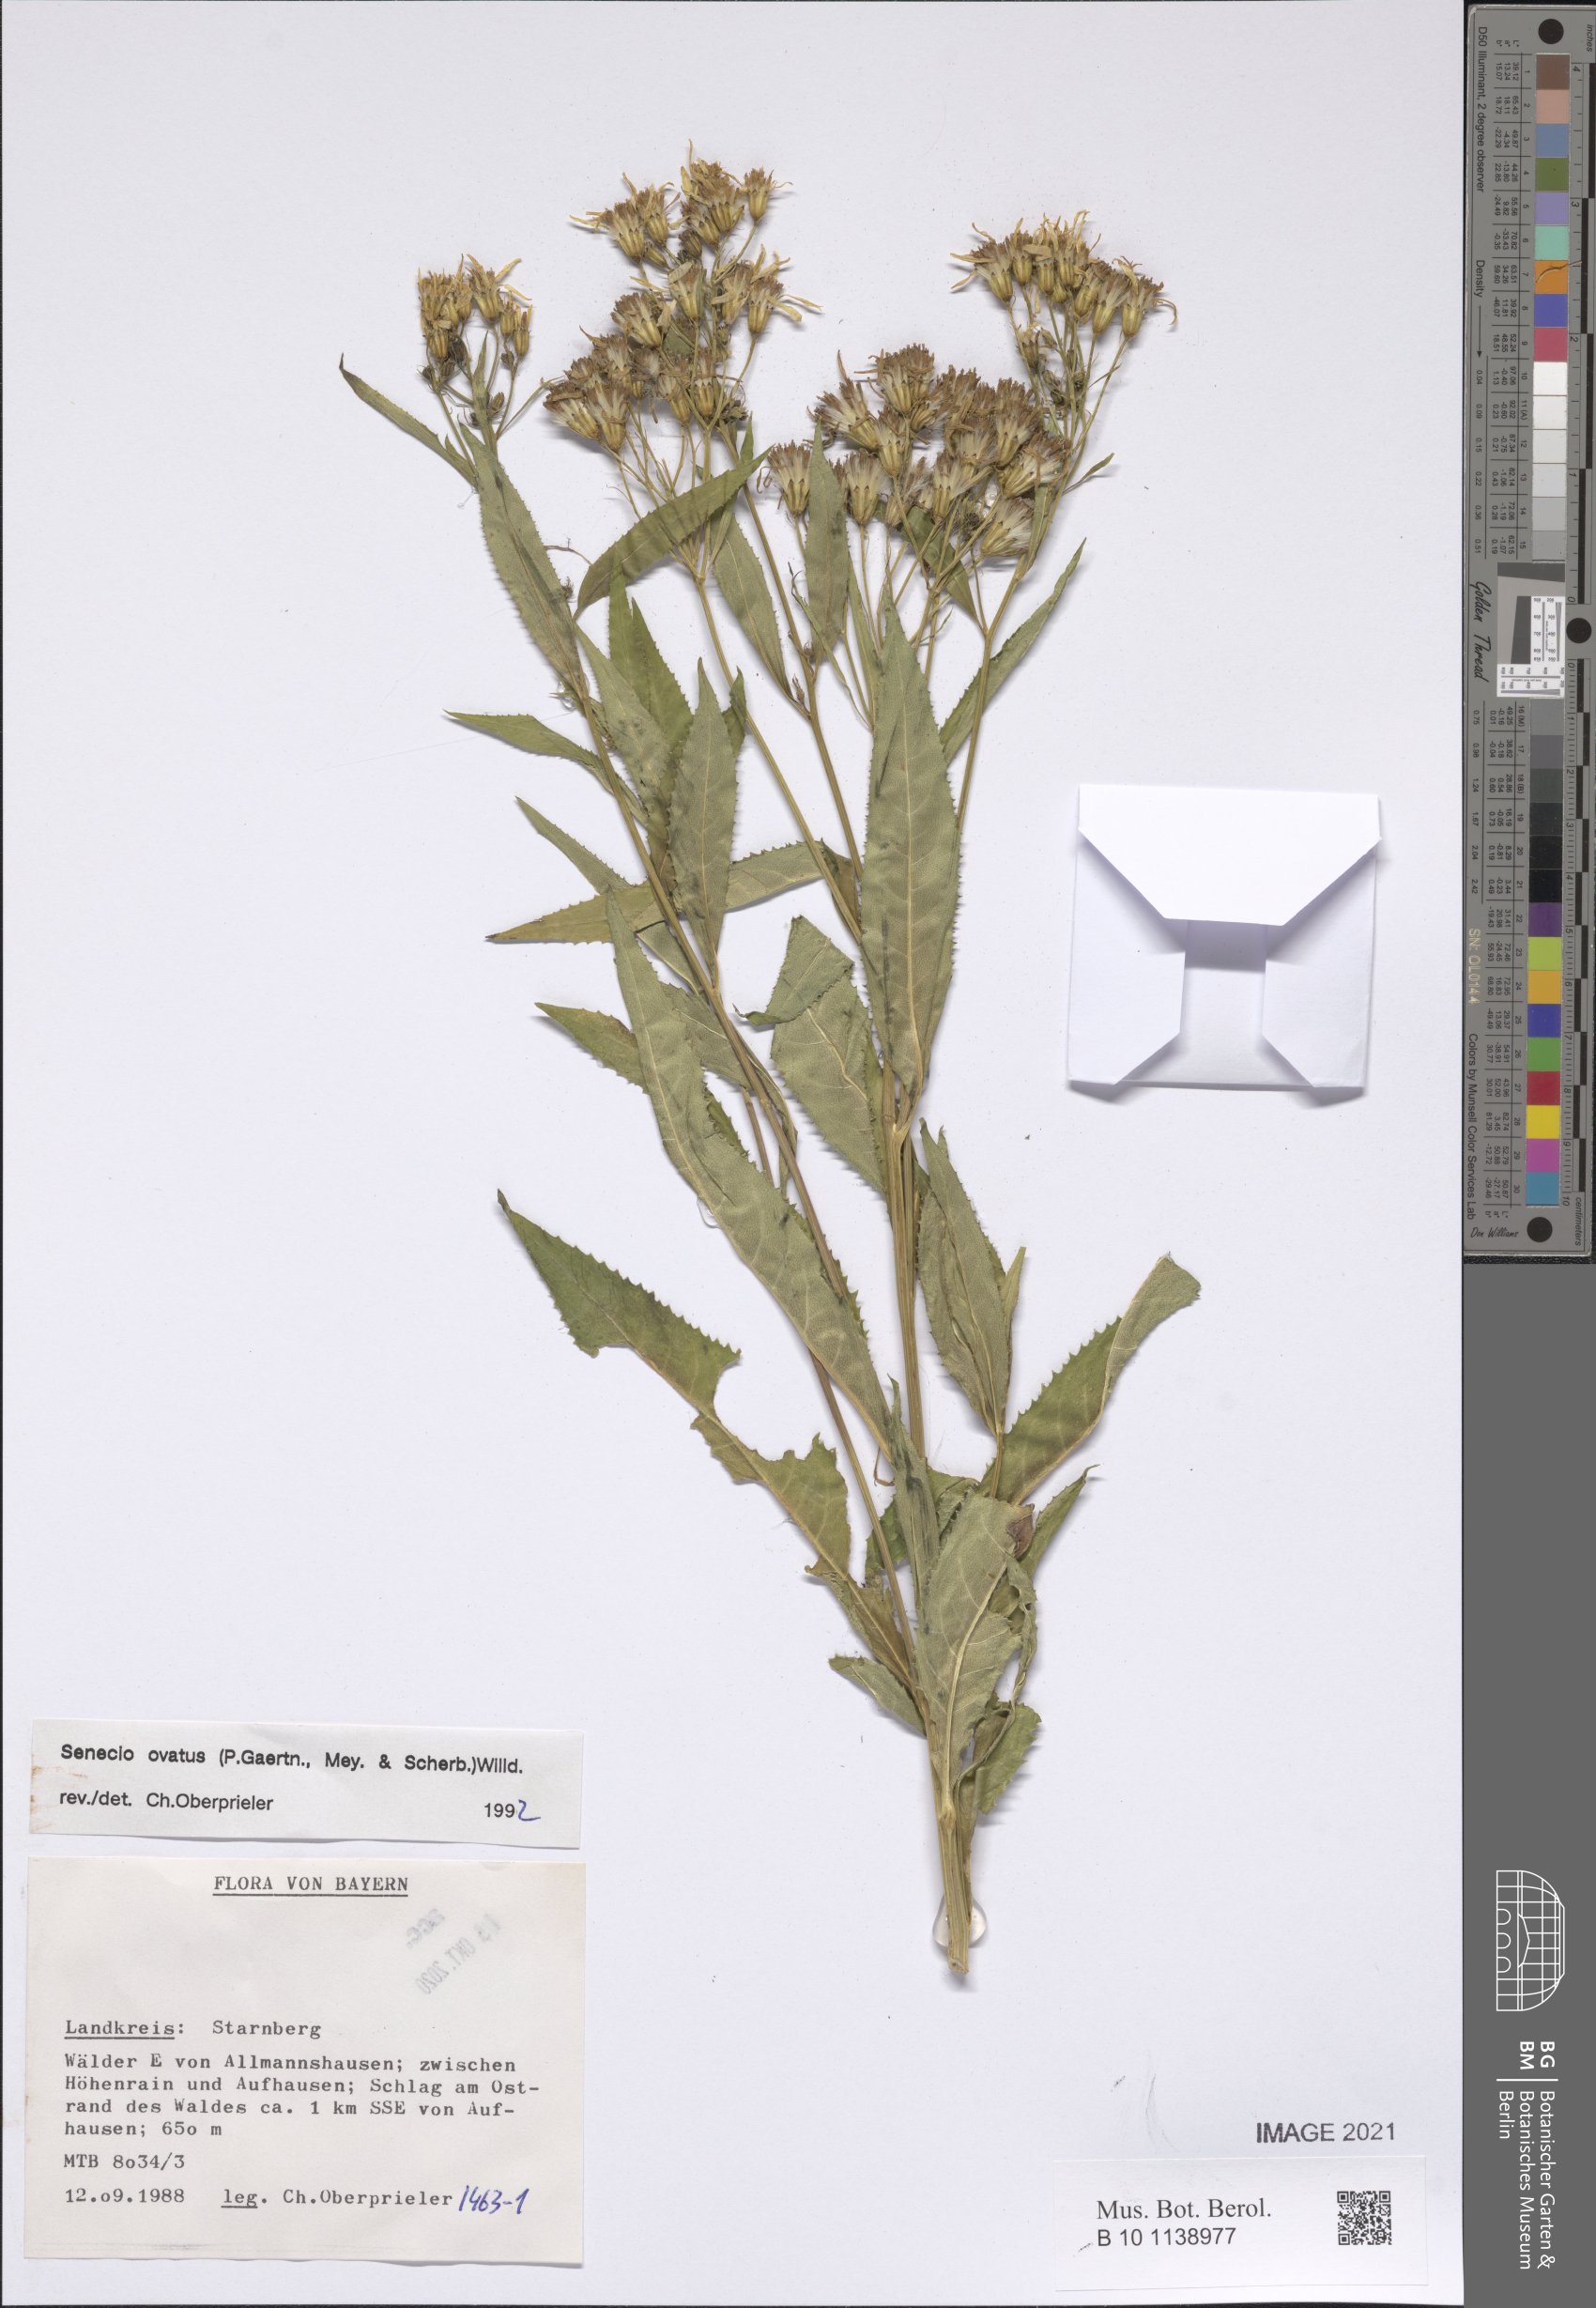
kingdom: Plantae
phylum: Tracheophyta
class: Magnoliopsida
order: Asterales
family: Asteraceae
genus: Senecio
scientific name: Senecio ovatus
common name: Wood ragwort
